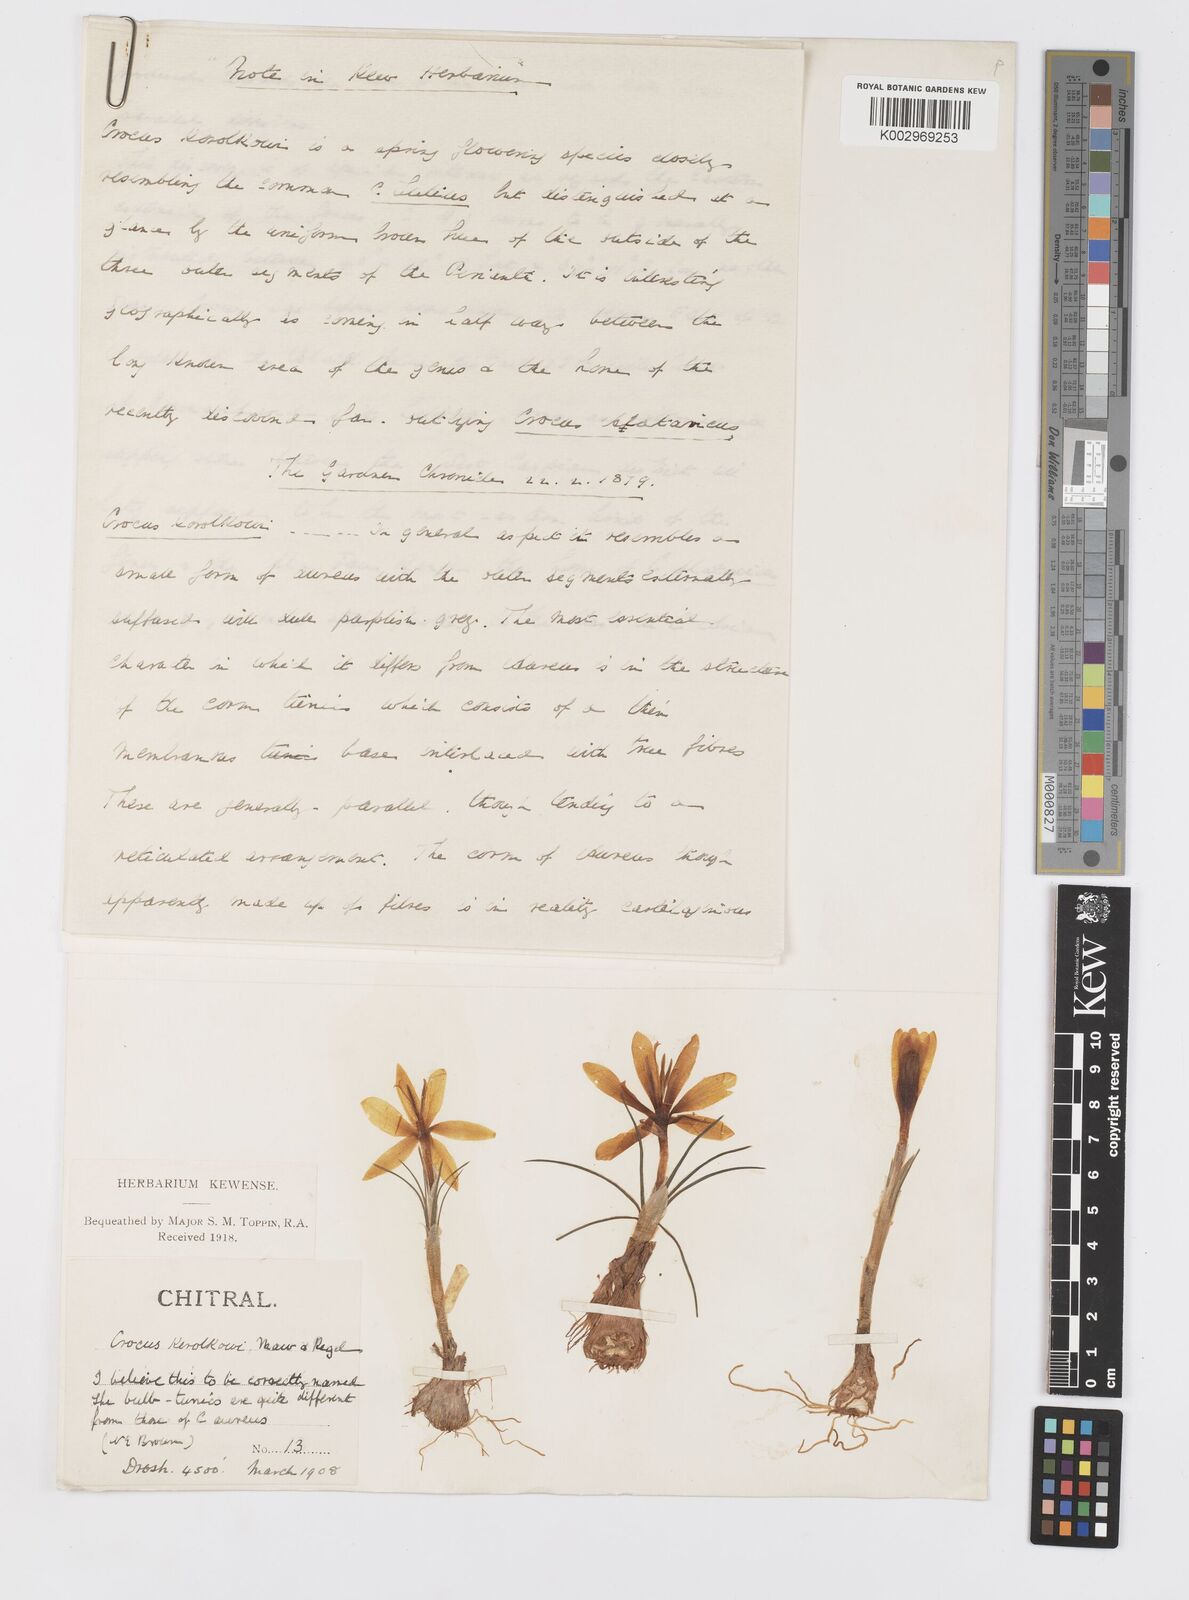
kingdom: Plantae
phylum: Tracheophyta
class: Liliopsida
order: Asparagales
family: Iridaceae
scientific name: Iridaceae
